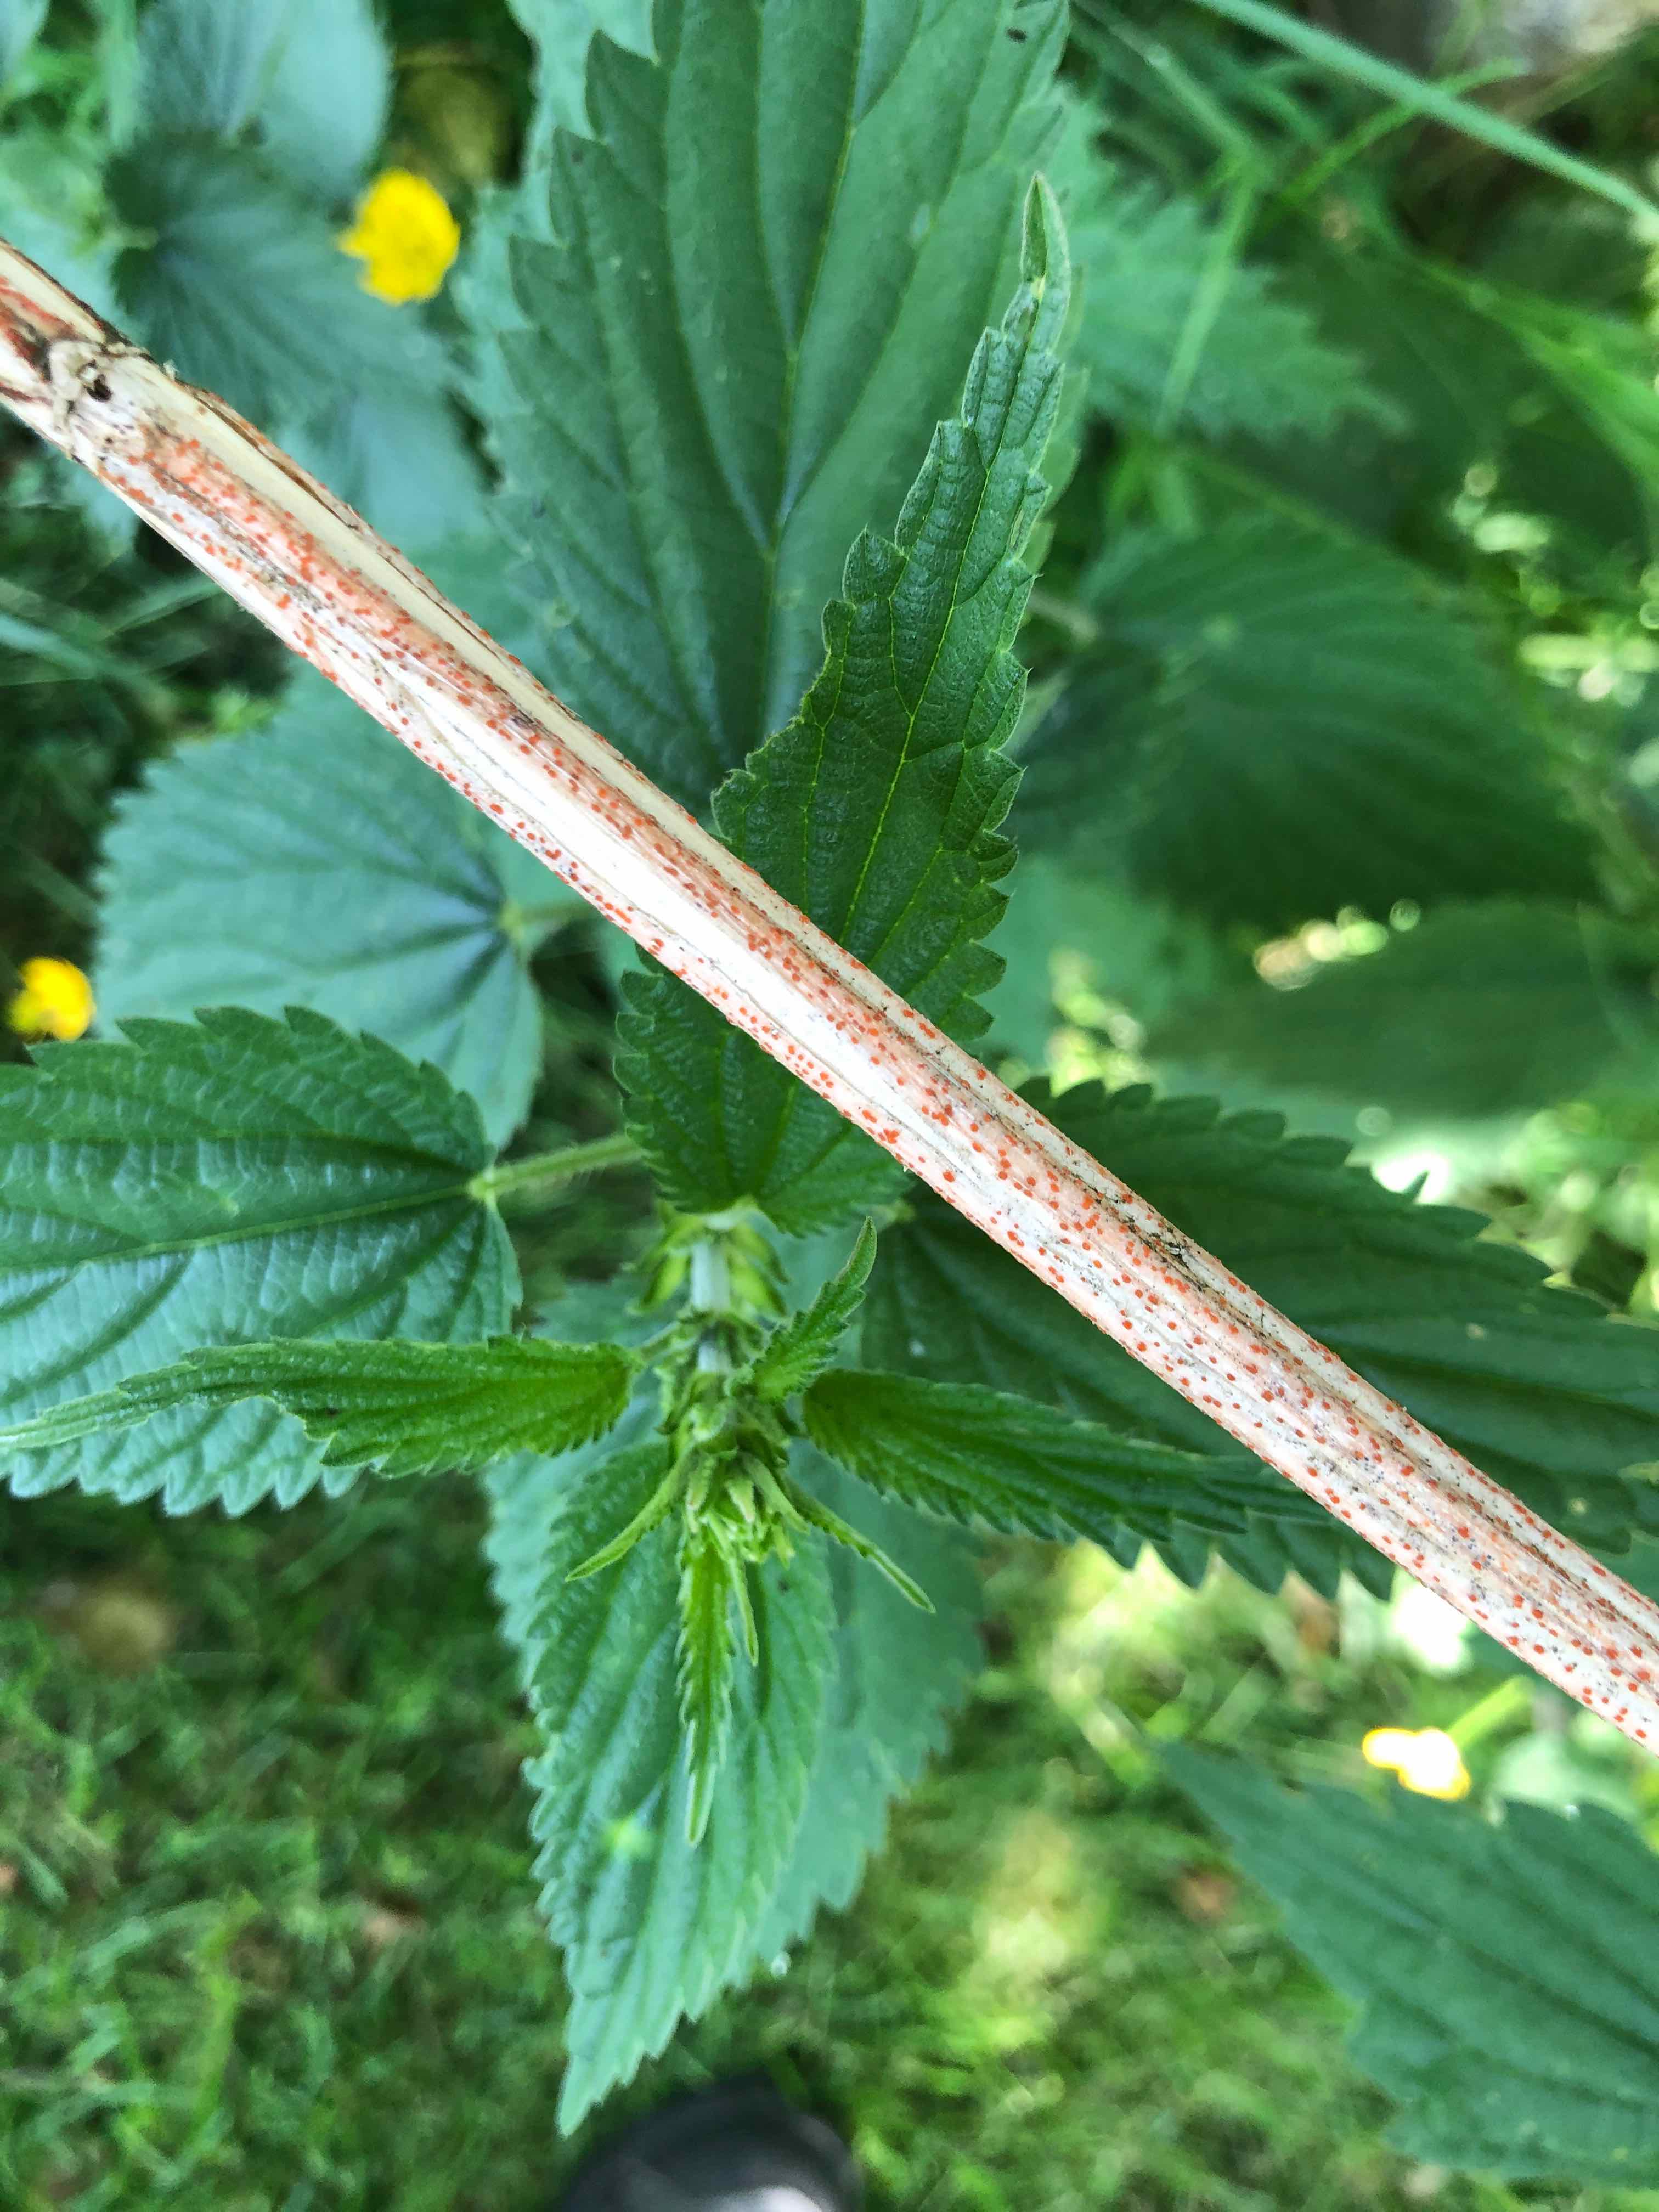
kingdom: Fungi
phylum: Ascomycota
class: Leotiomycetes
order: Helotiales
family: Calloriaceae
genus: Calloria
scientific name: Calloria urticae
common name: nælde-orangeskive
